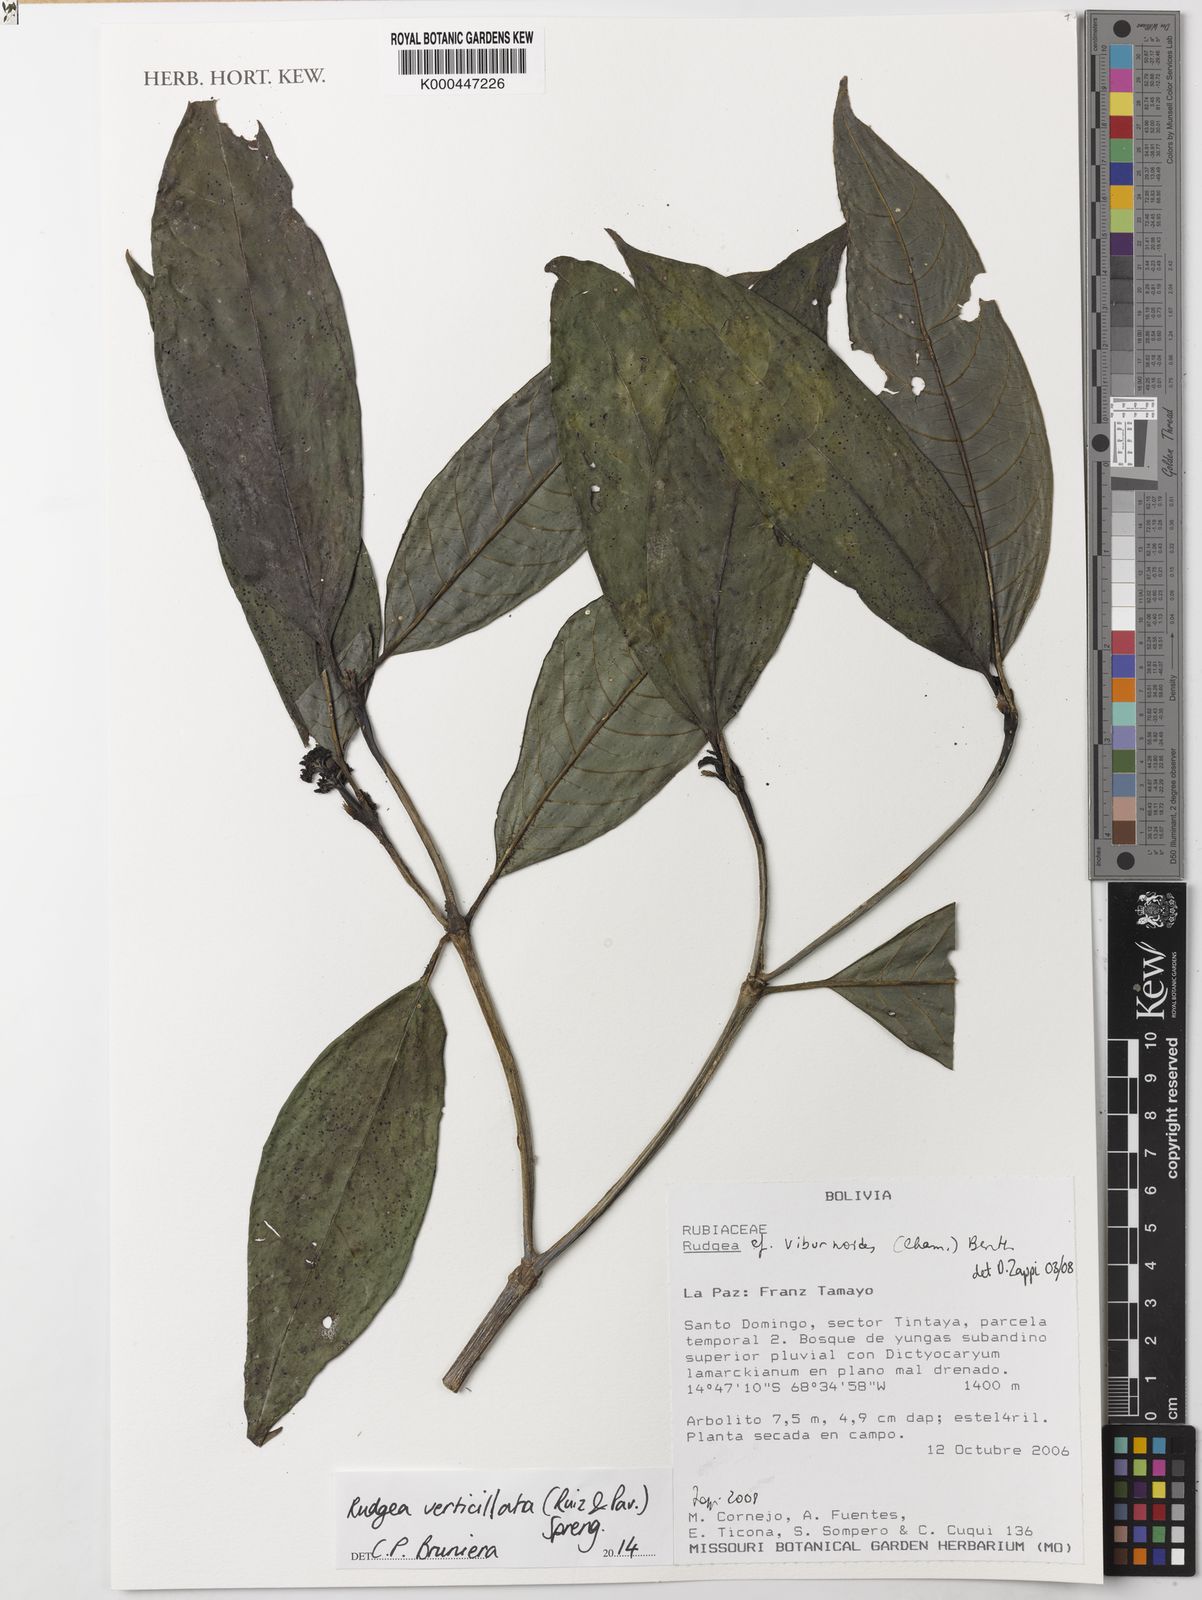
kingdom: Plantae
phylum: Tracheophyta
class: Magnoliopsida
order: Gentianales
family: Rubiaceae
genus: Rudgea
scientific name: Rudgea verticillata
